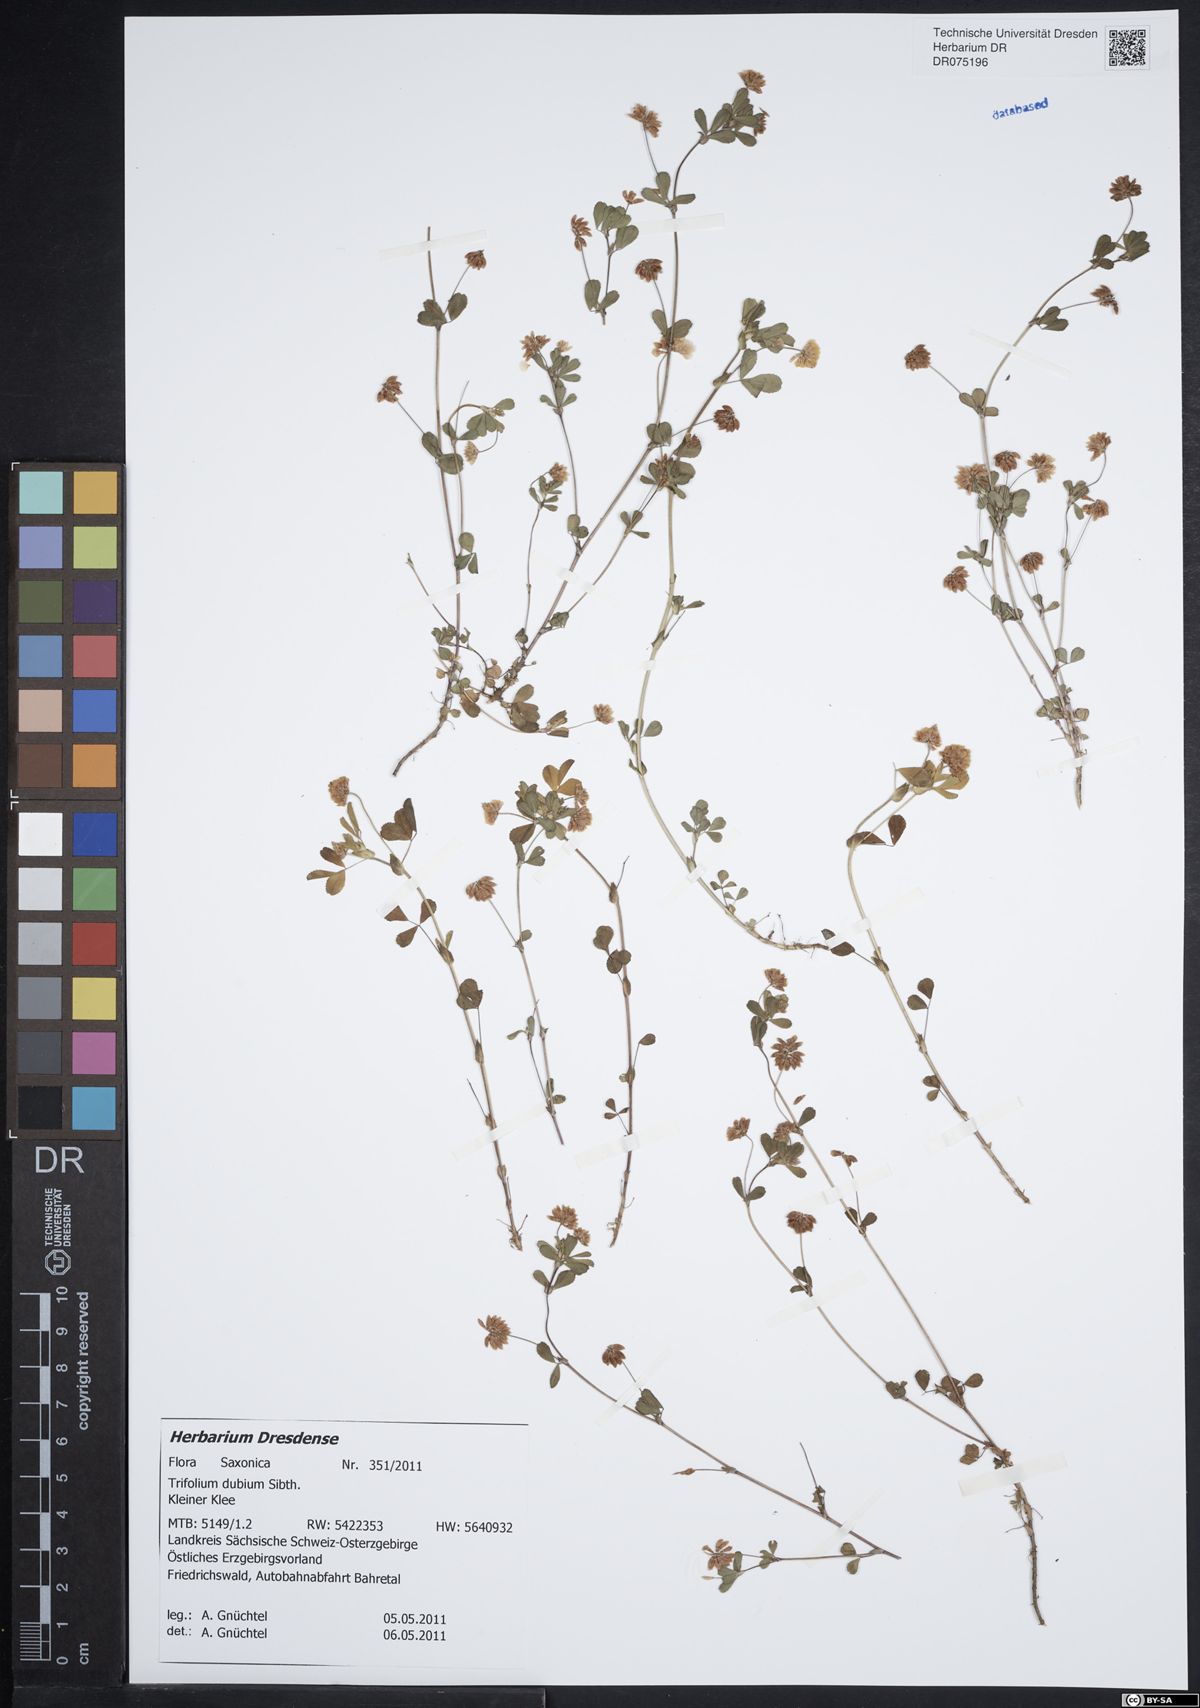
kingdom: Plantae
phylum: Tracheophyta
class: Magnoliopsida
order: Fabales
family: Fabaceae
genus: Trifolium
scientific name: Trifolium dubium
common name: Suckling clover
